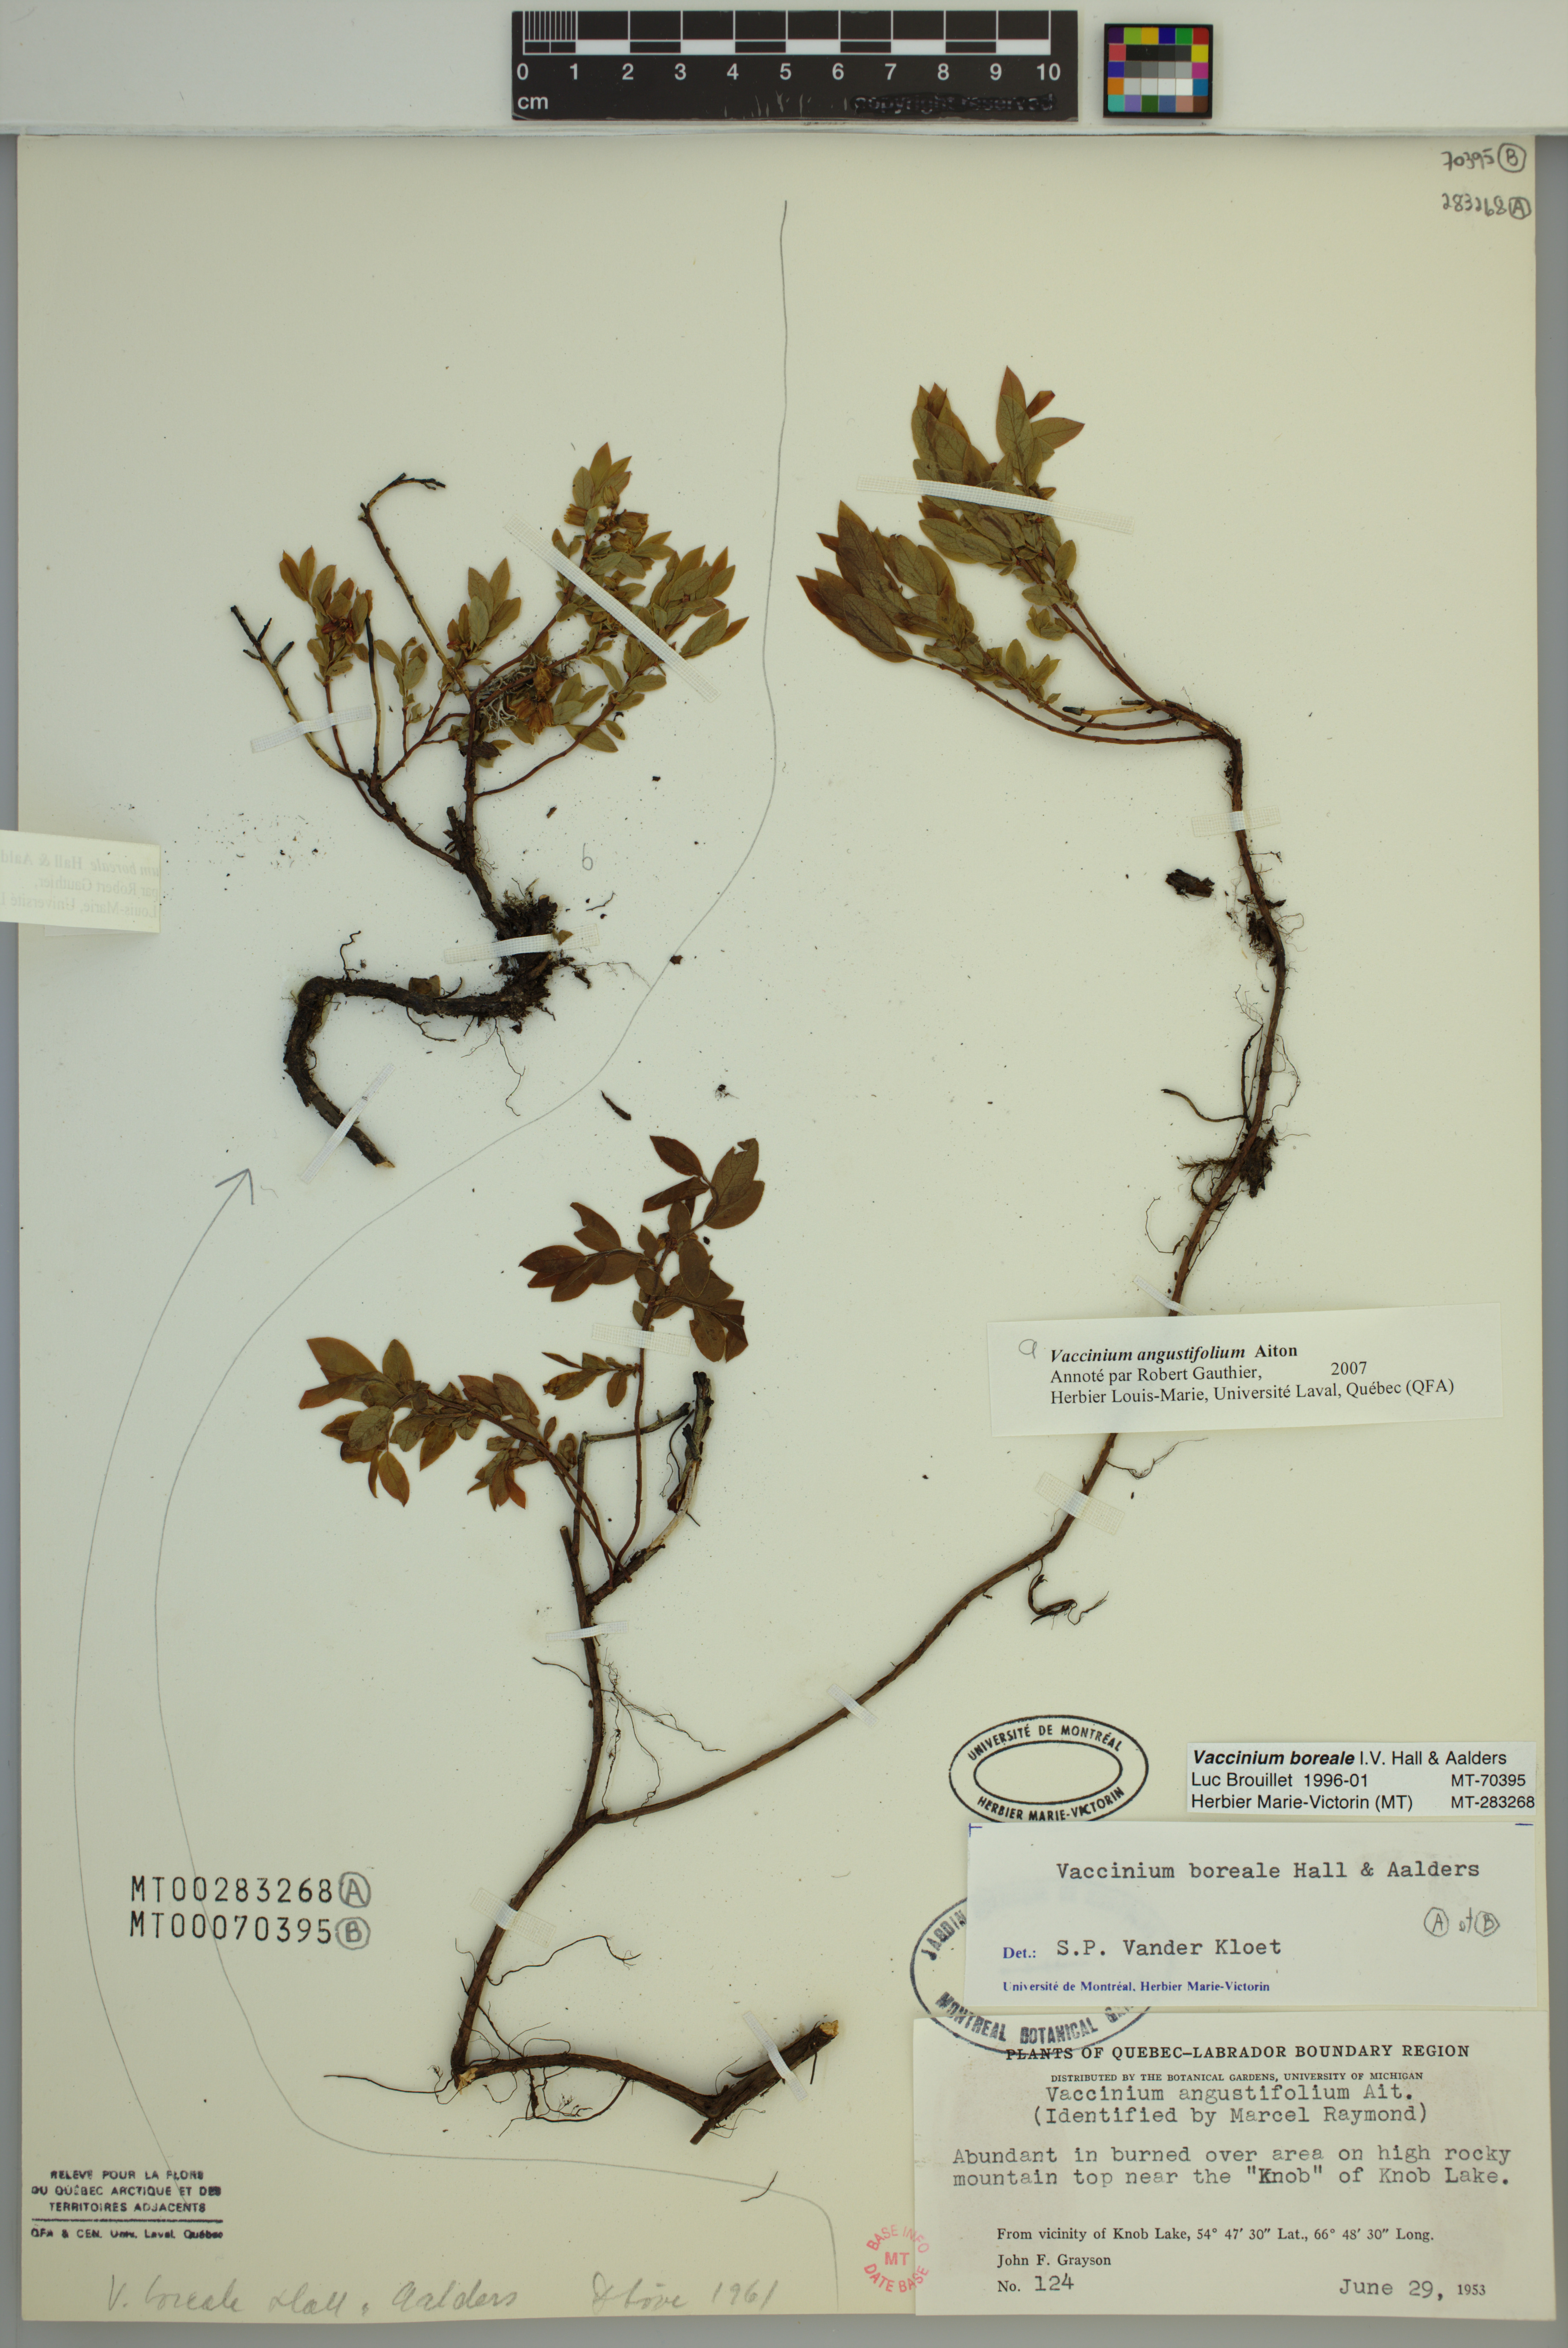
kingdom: Plantae
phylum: Tracheophyta
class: Magnoliopsida
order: Ericales
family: Ericaceae
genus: Vaccinium
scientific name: Vaccinium boreale
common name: Northern blueberry
